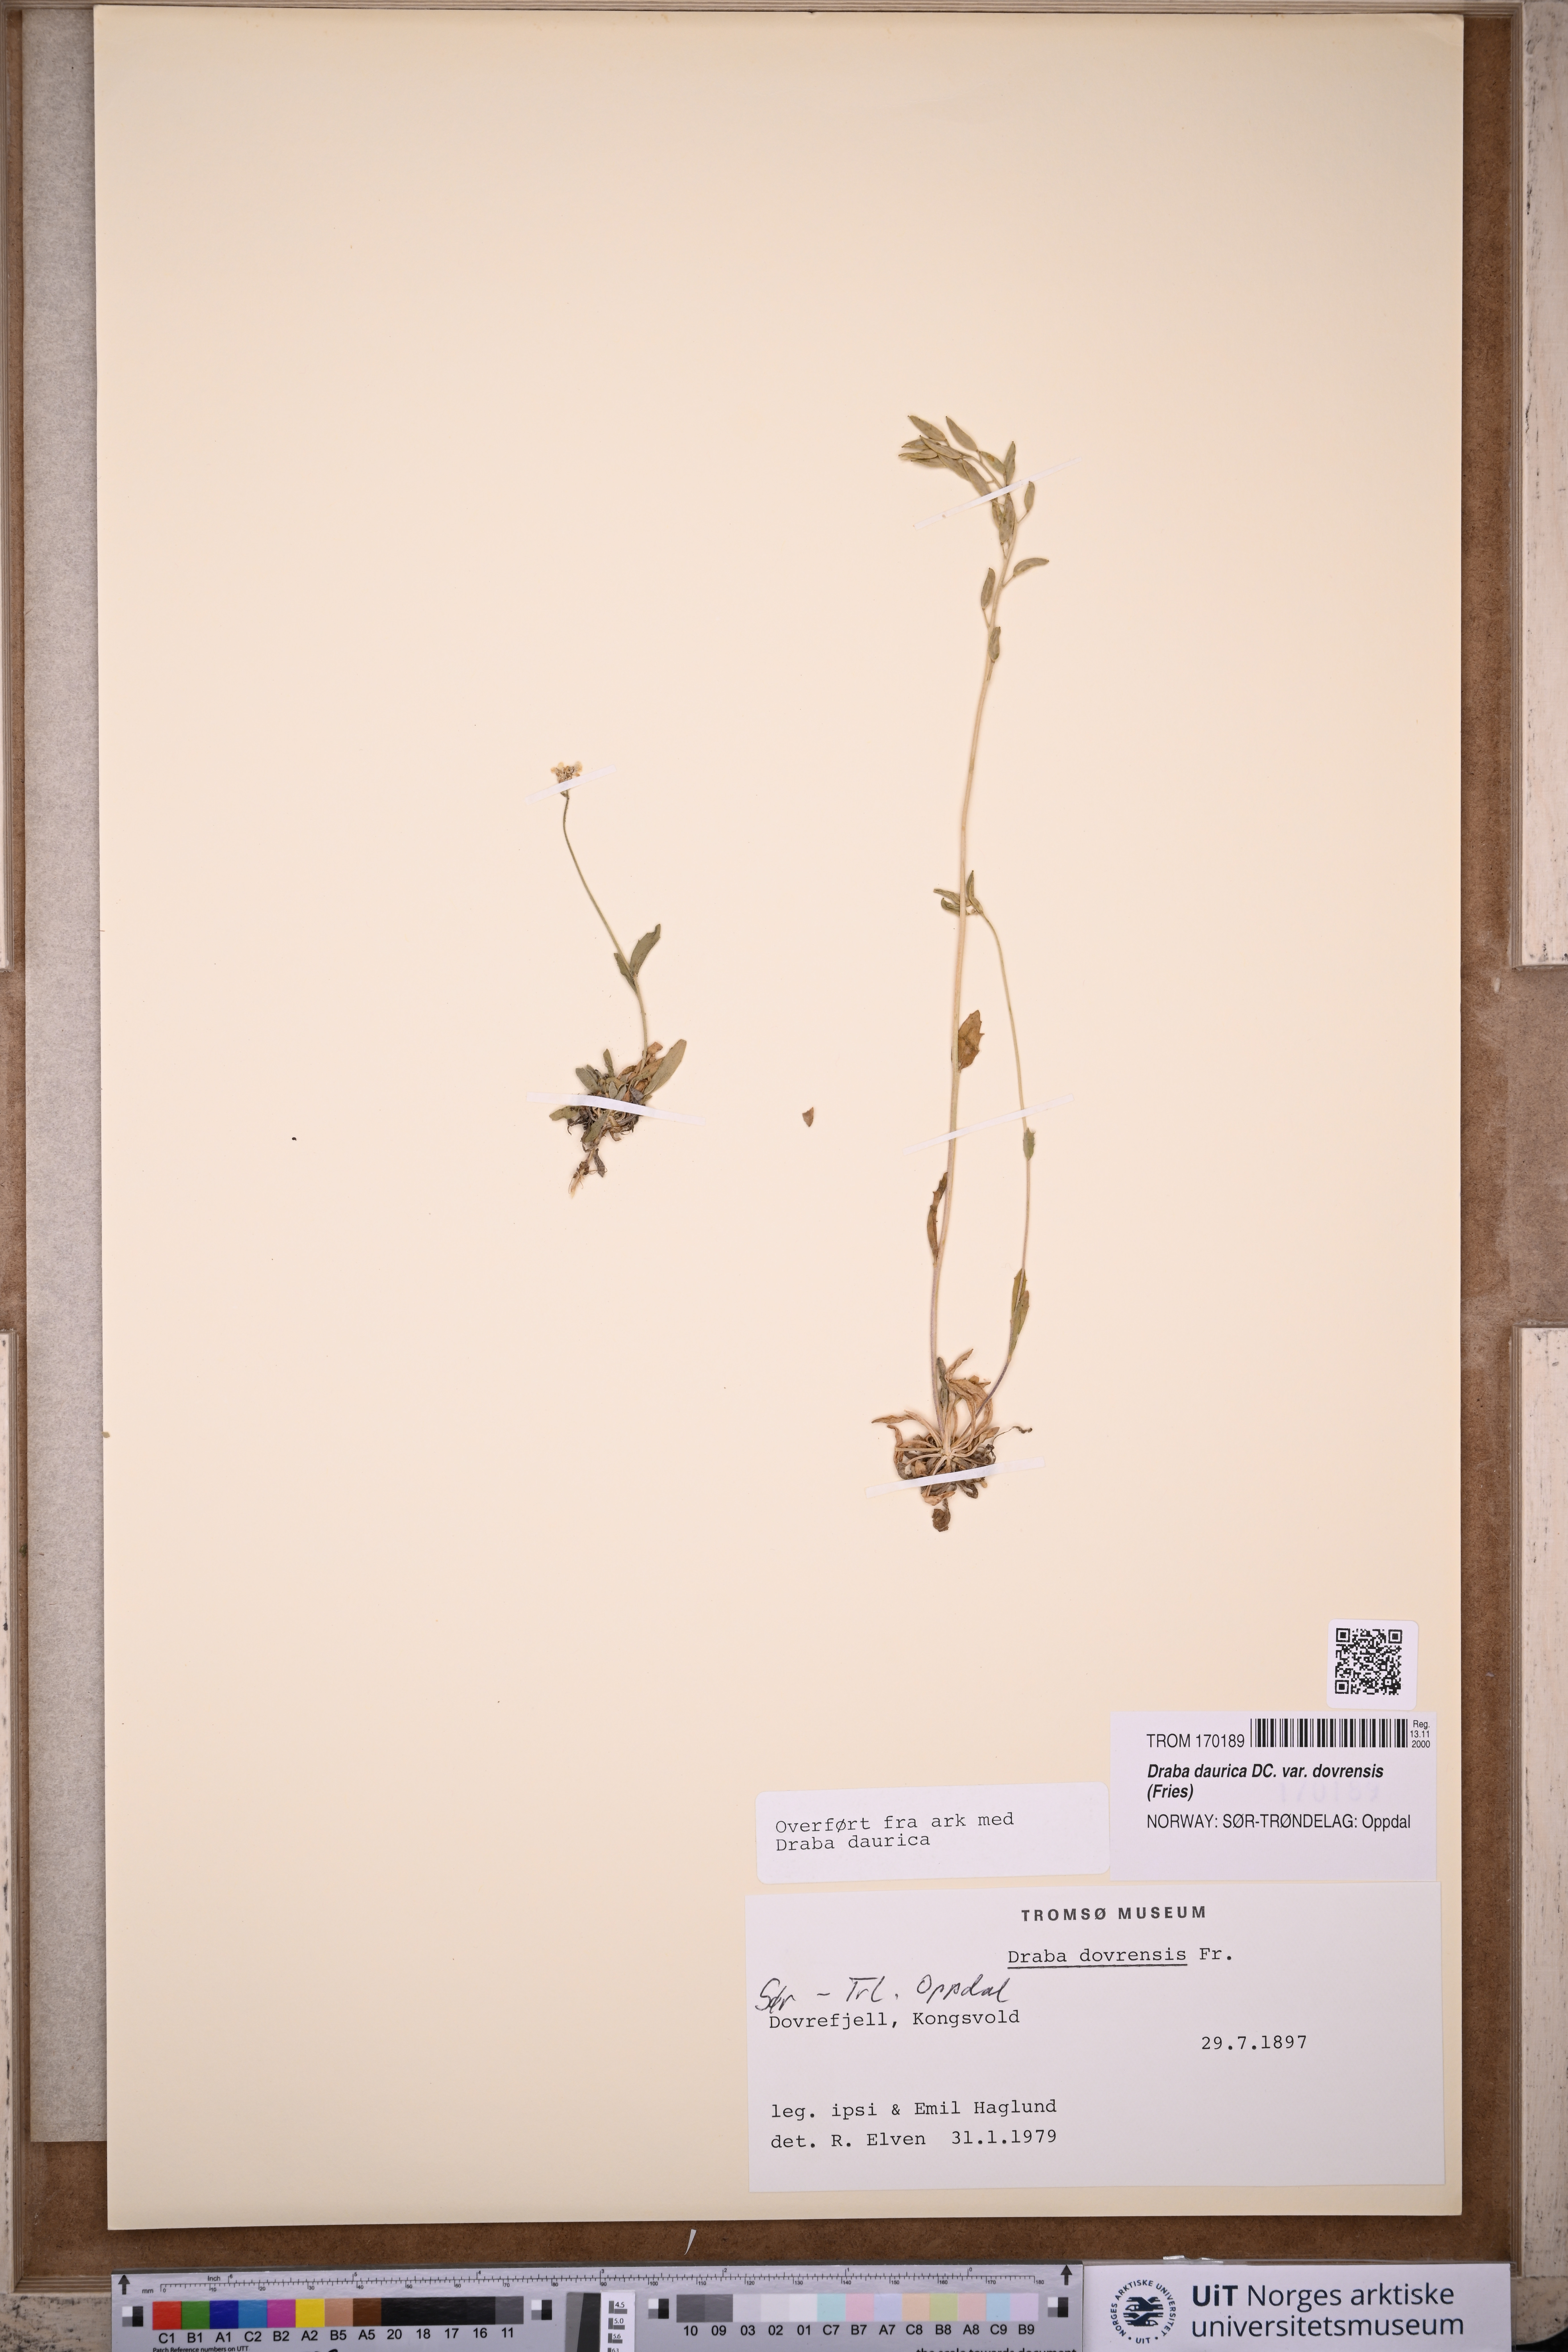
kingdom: Plantae
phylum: Tracheophyta
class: Magnoliopsida
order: Brassicales
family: Brassicaceae
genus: Draba
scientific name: Draba glabella
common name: Glaucous draba
